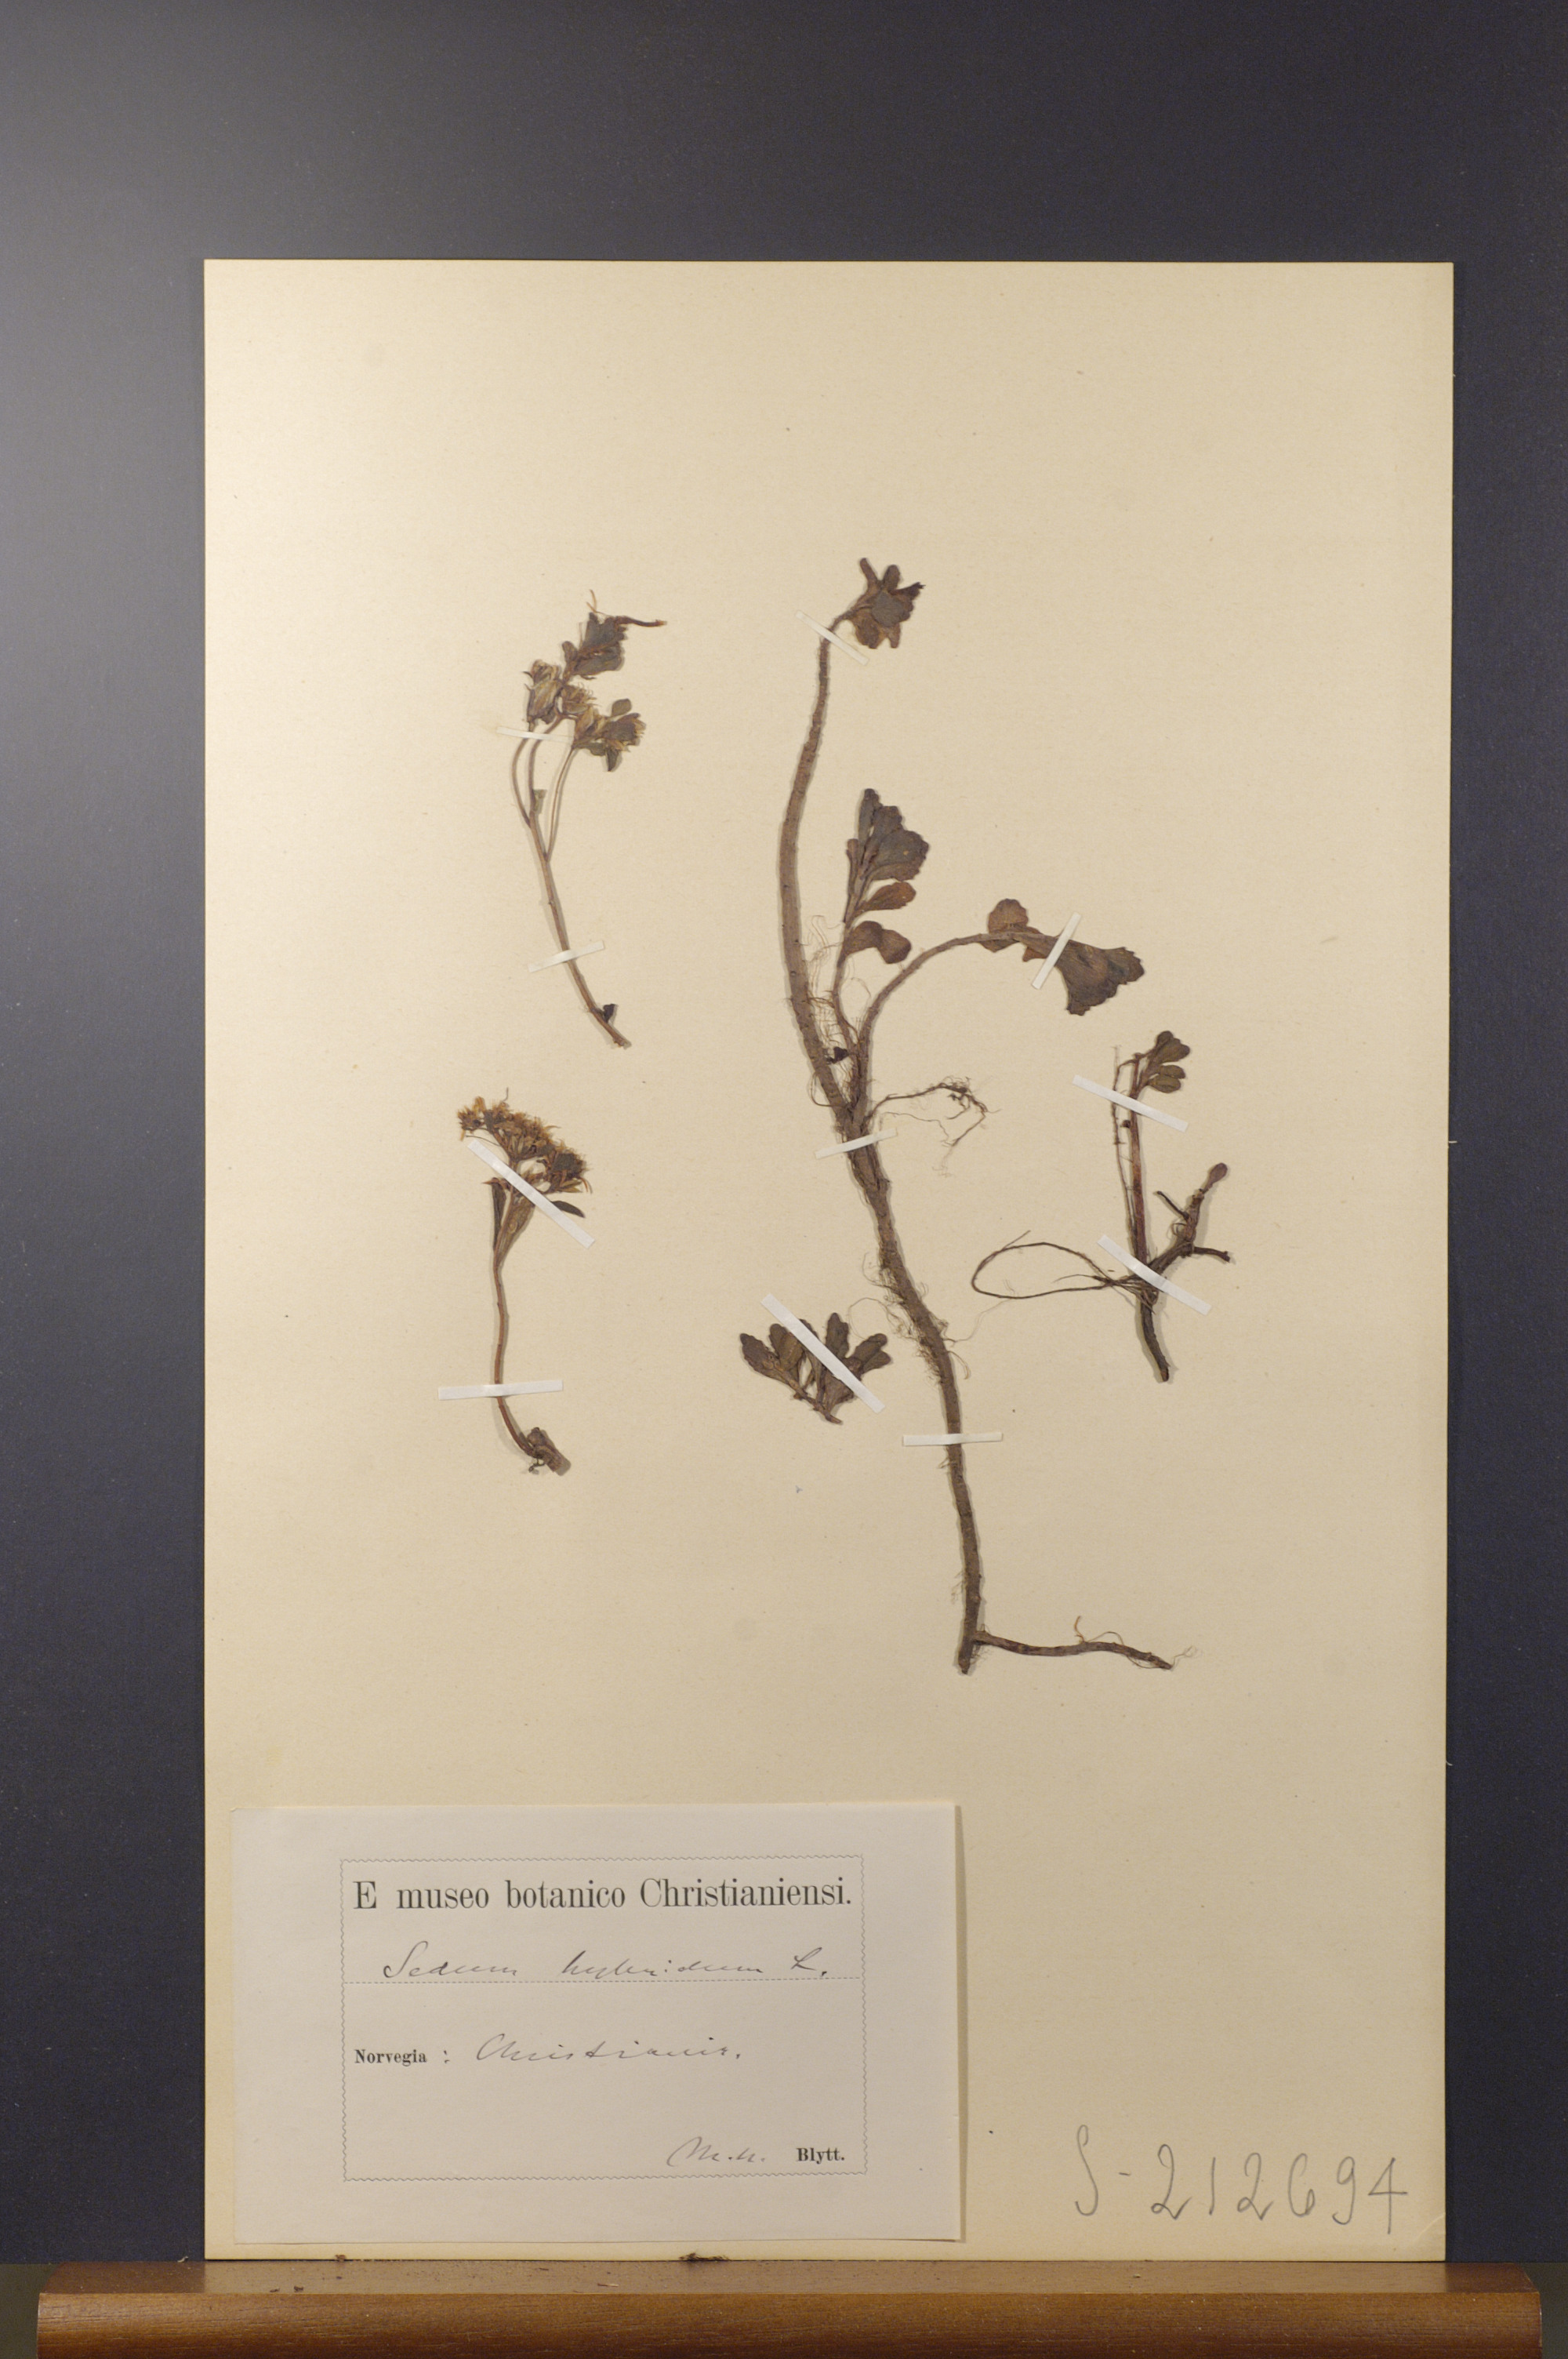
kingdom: Plantae
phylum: Tracheophyta
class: Magnoliopsida
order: Saxifragales
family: Crassulaceae
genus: Phedimus
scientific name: Phedimus hybridus
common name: Hybrid stonecrop
